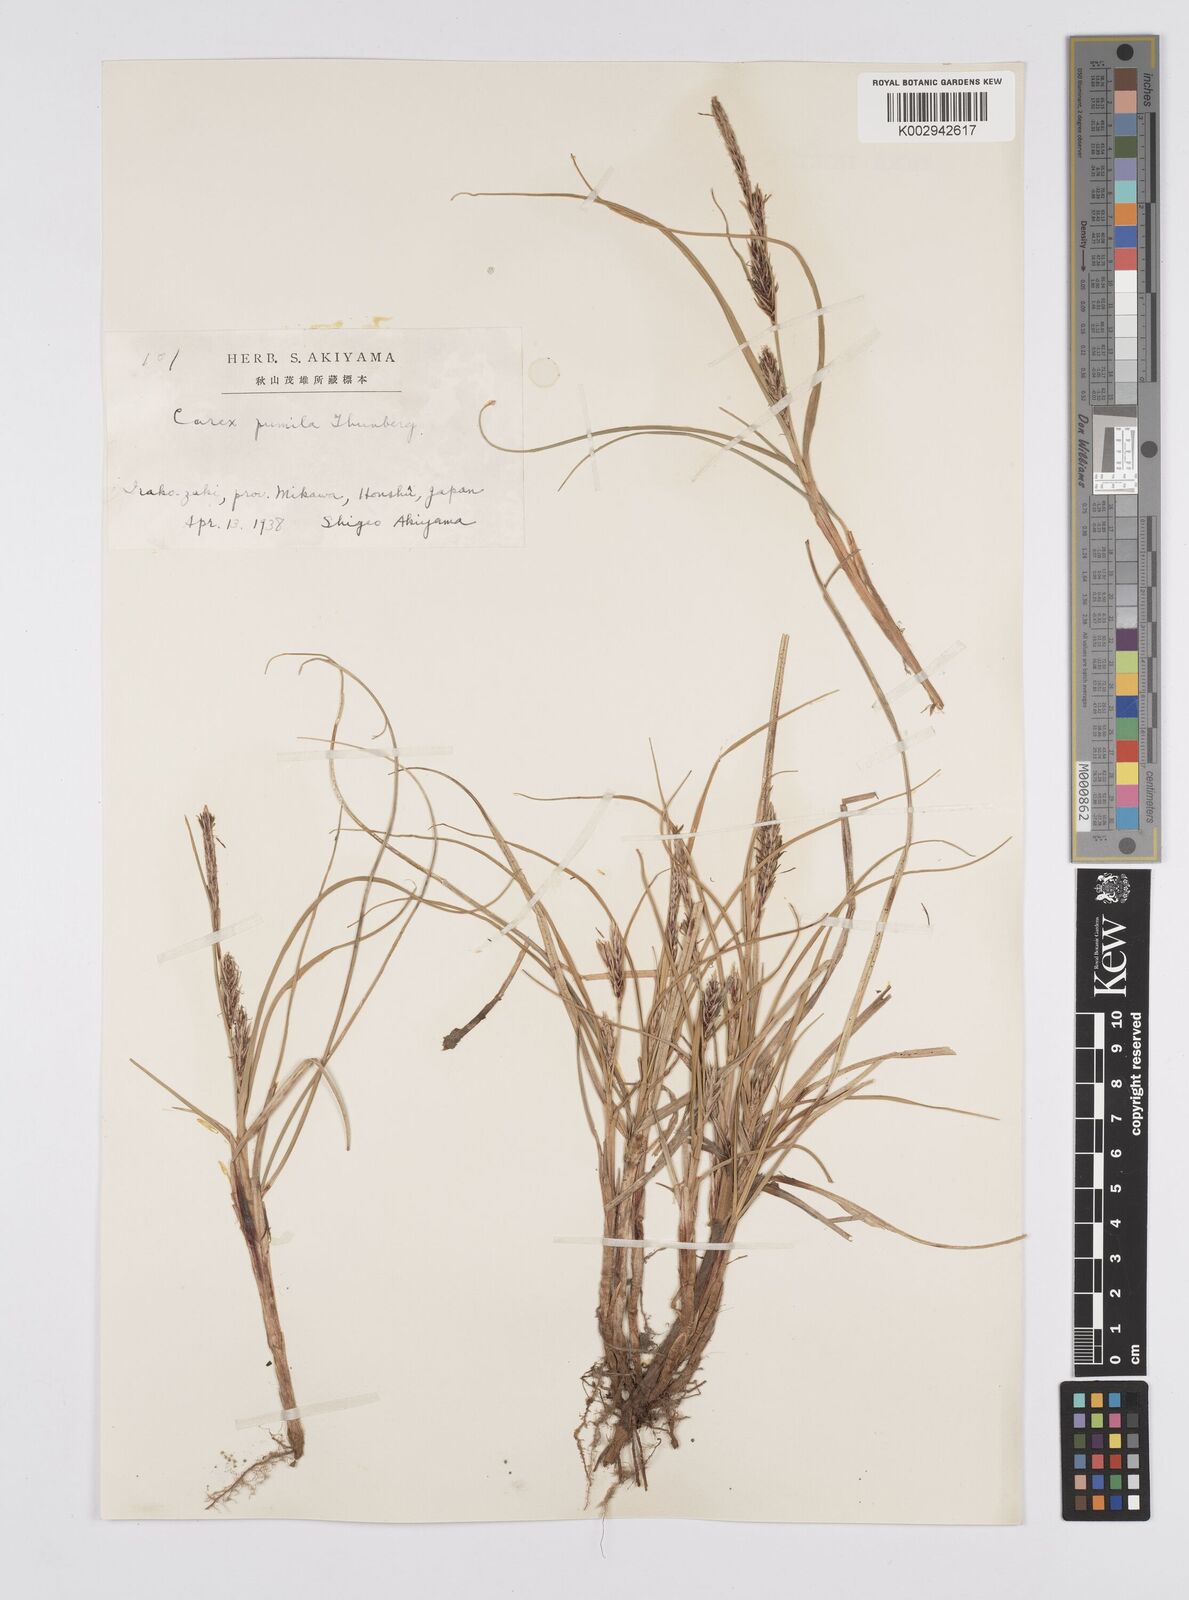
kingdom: Plantae
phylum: Tracheophyta
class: Liliopsida
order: Poales
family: Cyperaceae
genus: Carex
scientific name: Carex pumila
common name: Dwarf sedge
